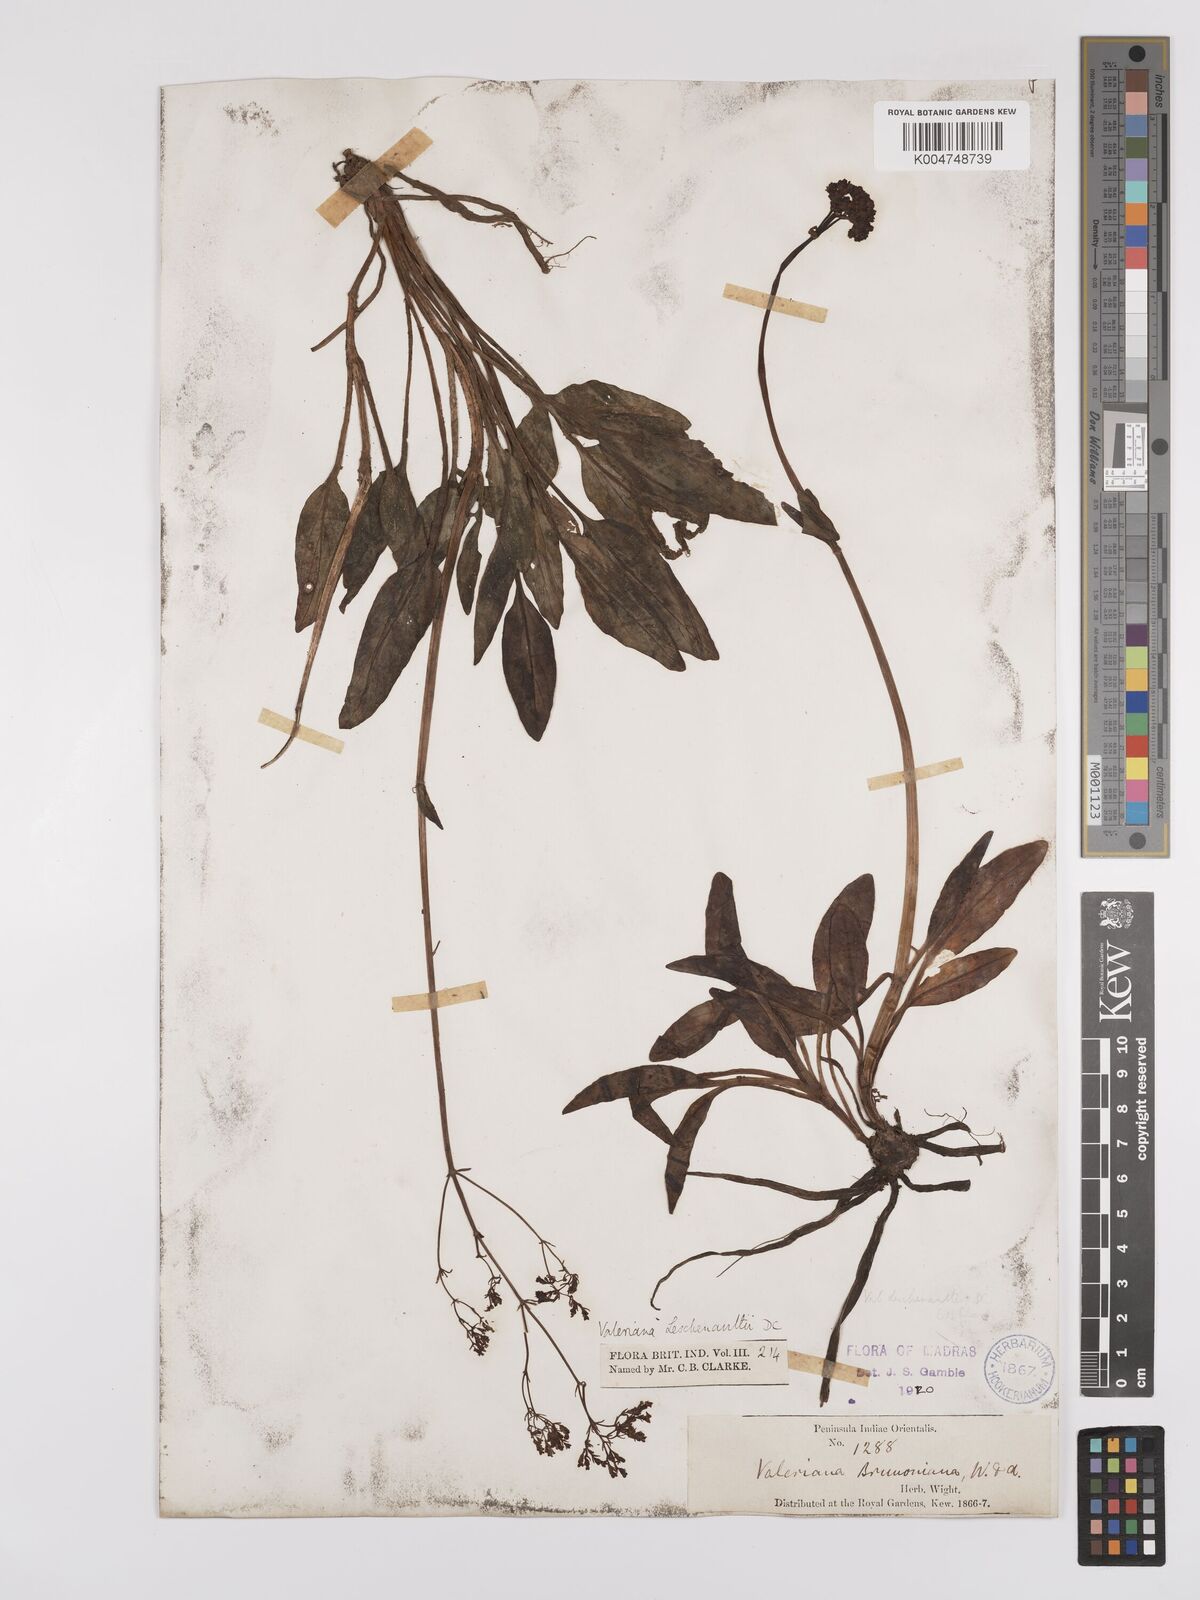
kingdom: Plantae
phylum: Tracheophyta
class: Magnoliopsida
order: Dipsacales
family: Caprifoliaceae
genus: Valeriana
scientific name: Valeriana leschenaultii
